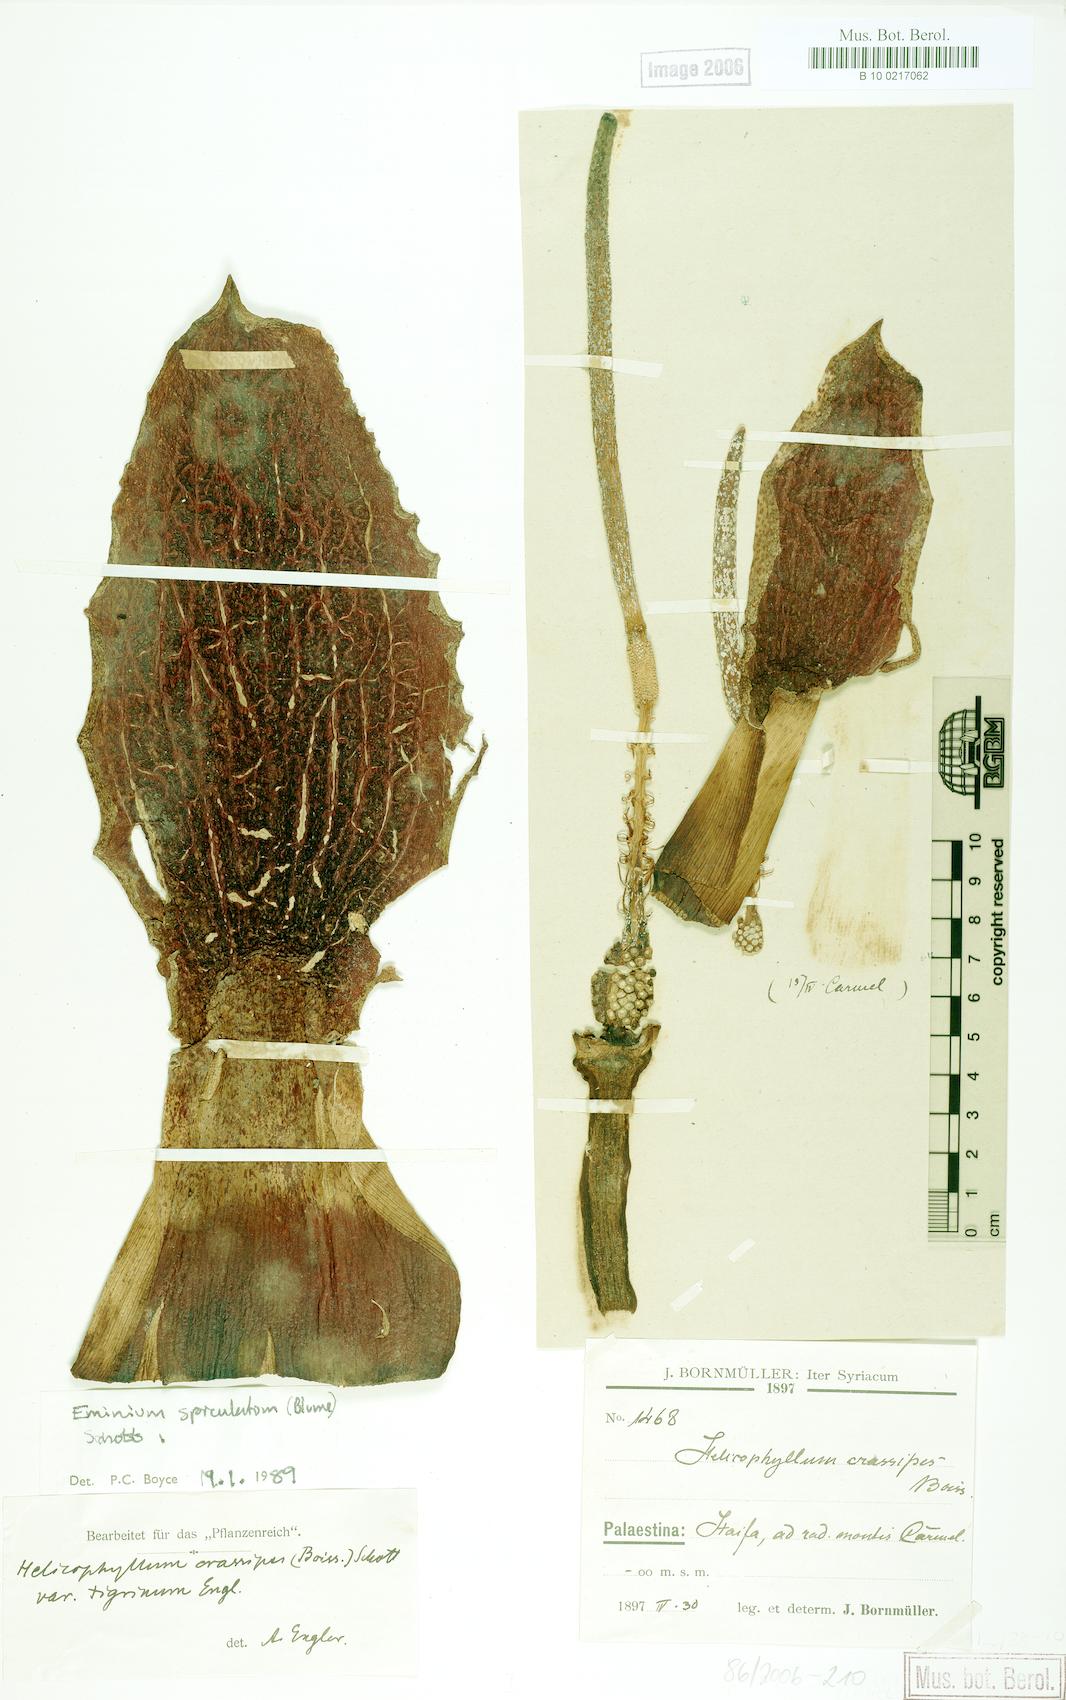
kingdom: Plantae
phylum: Tracheophyta
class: Liliopsida
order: Alismatales
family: Araceae
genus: Eminium
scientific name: Eminium spiculatum
